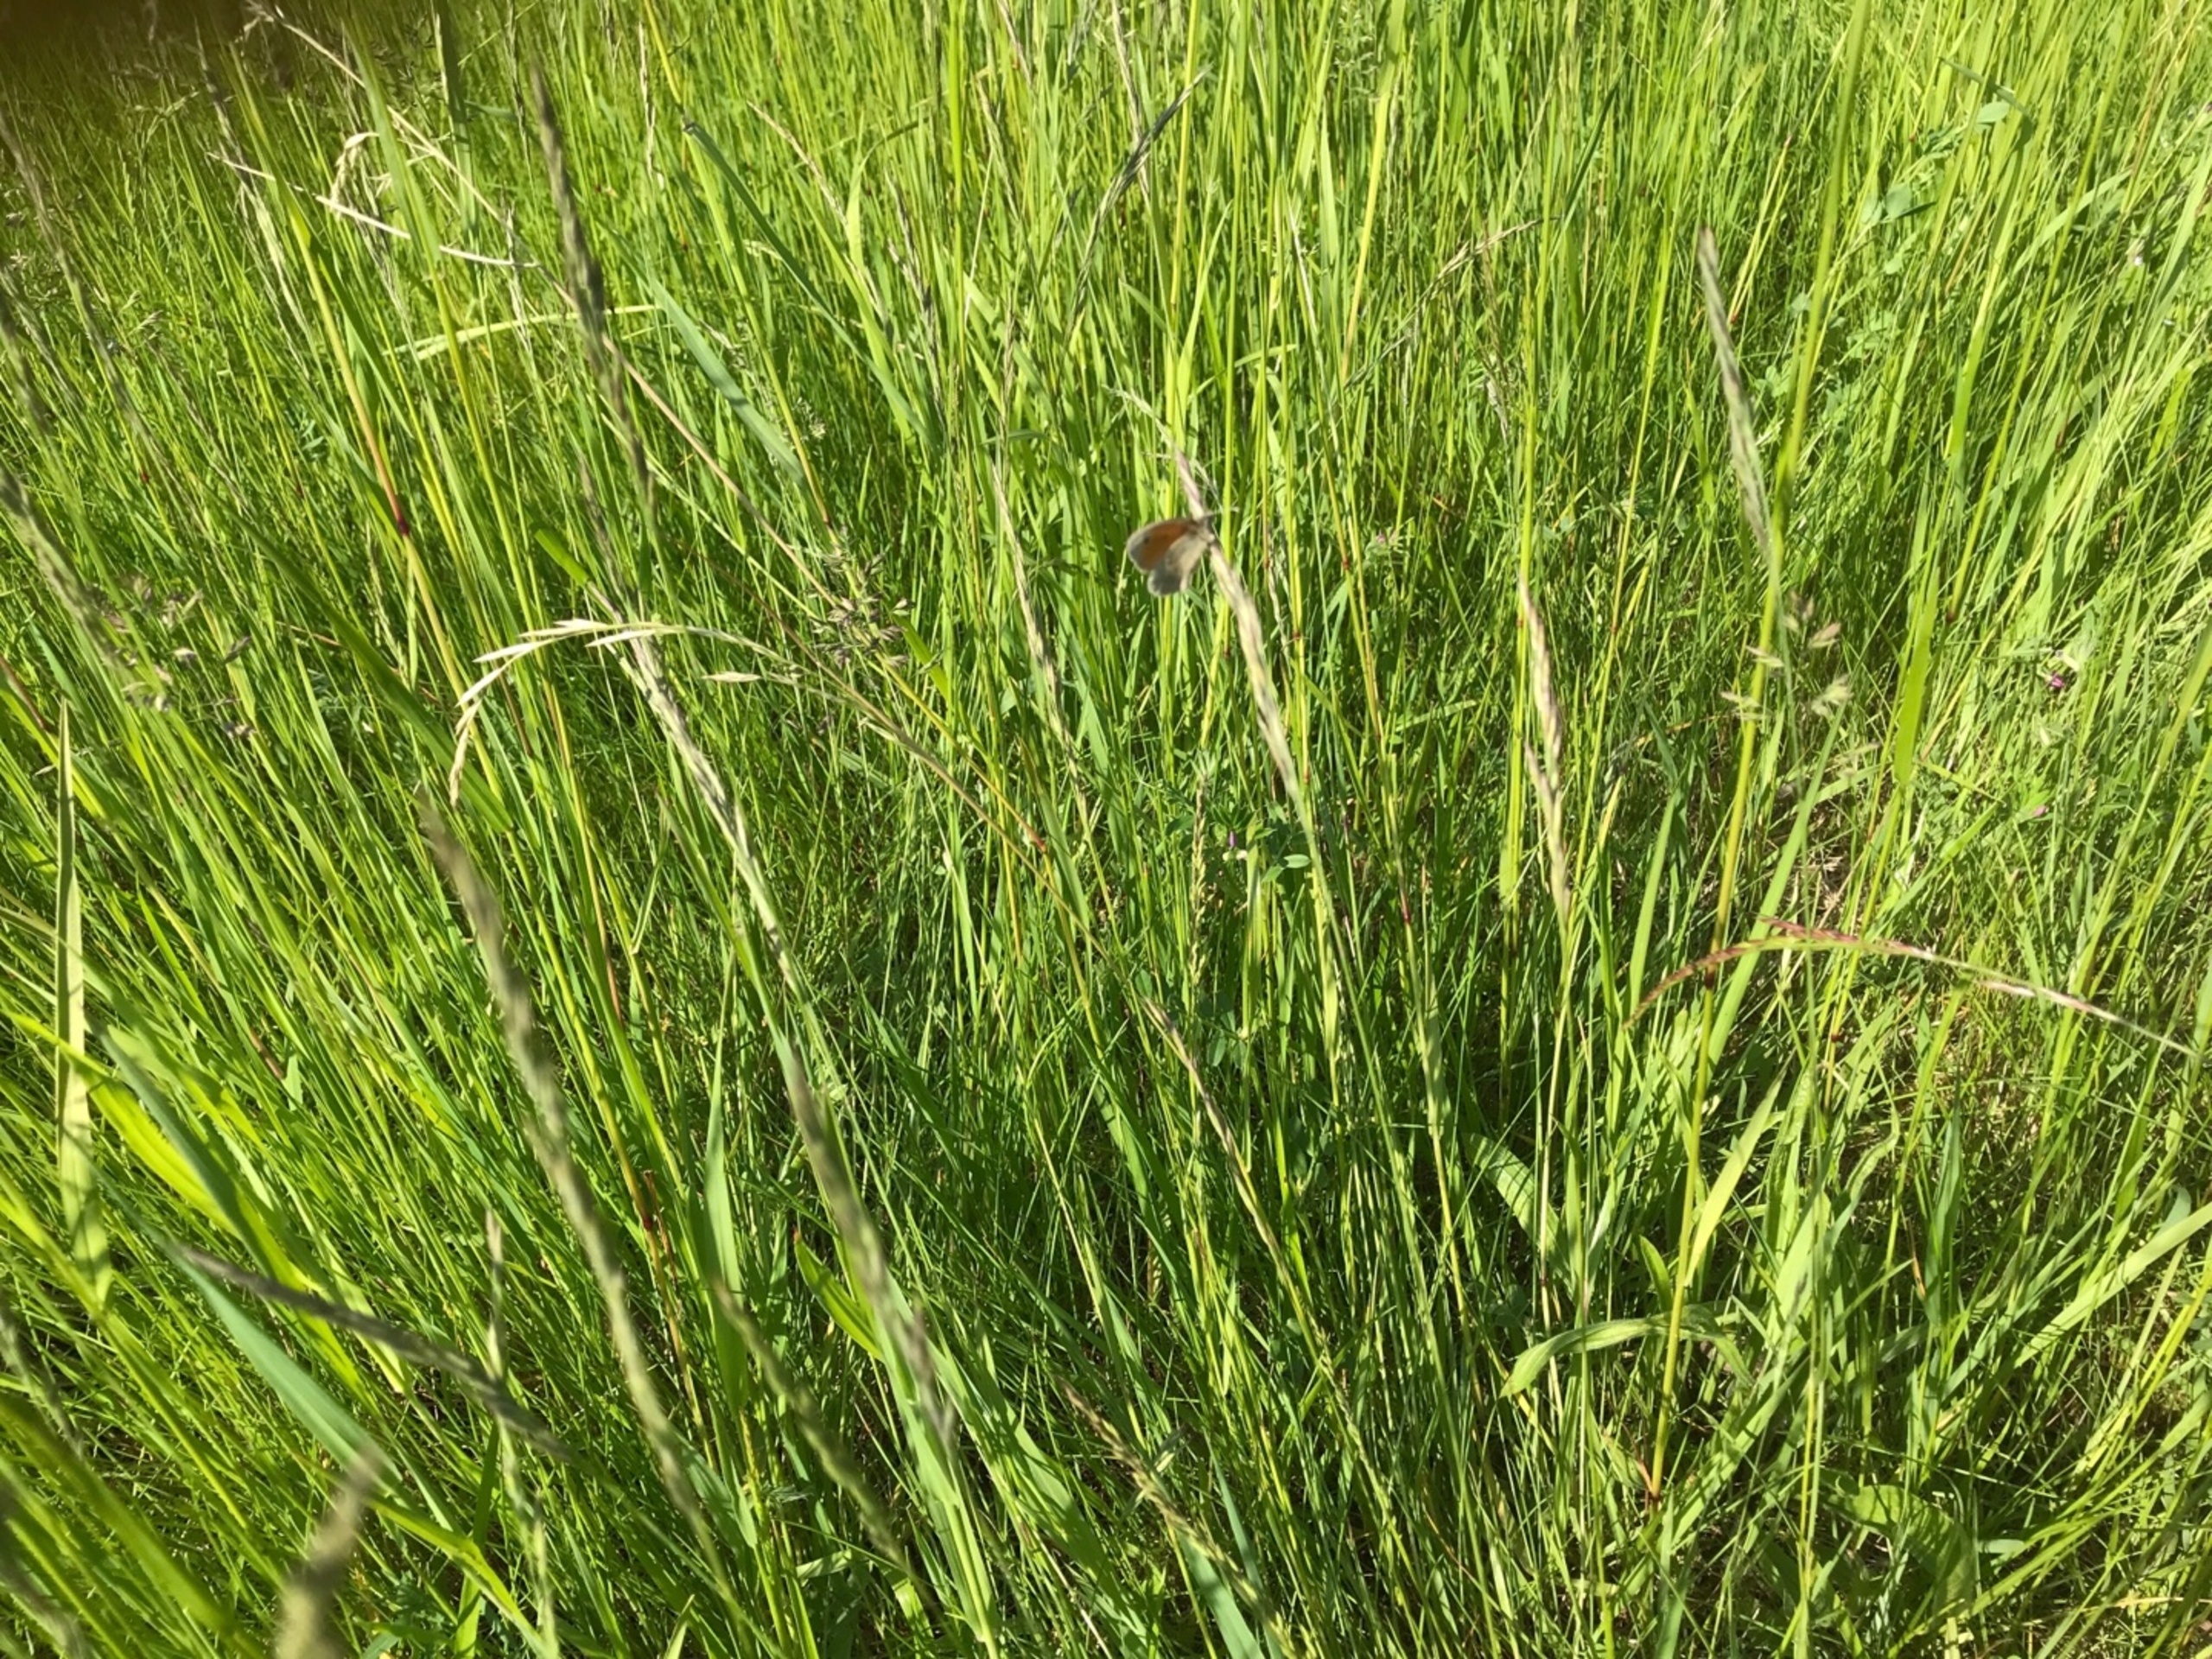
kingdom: Animalia
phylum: Arthropoda
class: Insecta
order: Lepidoptera
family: Nymphalidae
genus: Coenonympha
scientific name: Coenonympha pamphilus
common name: Okkergul randøje
